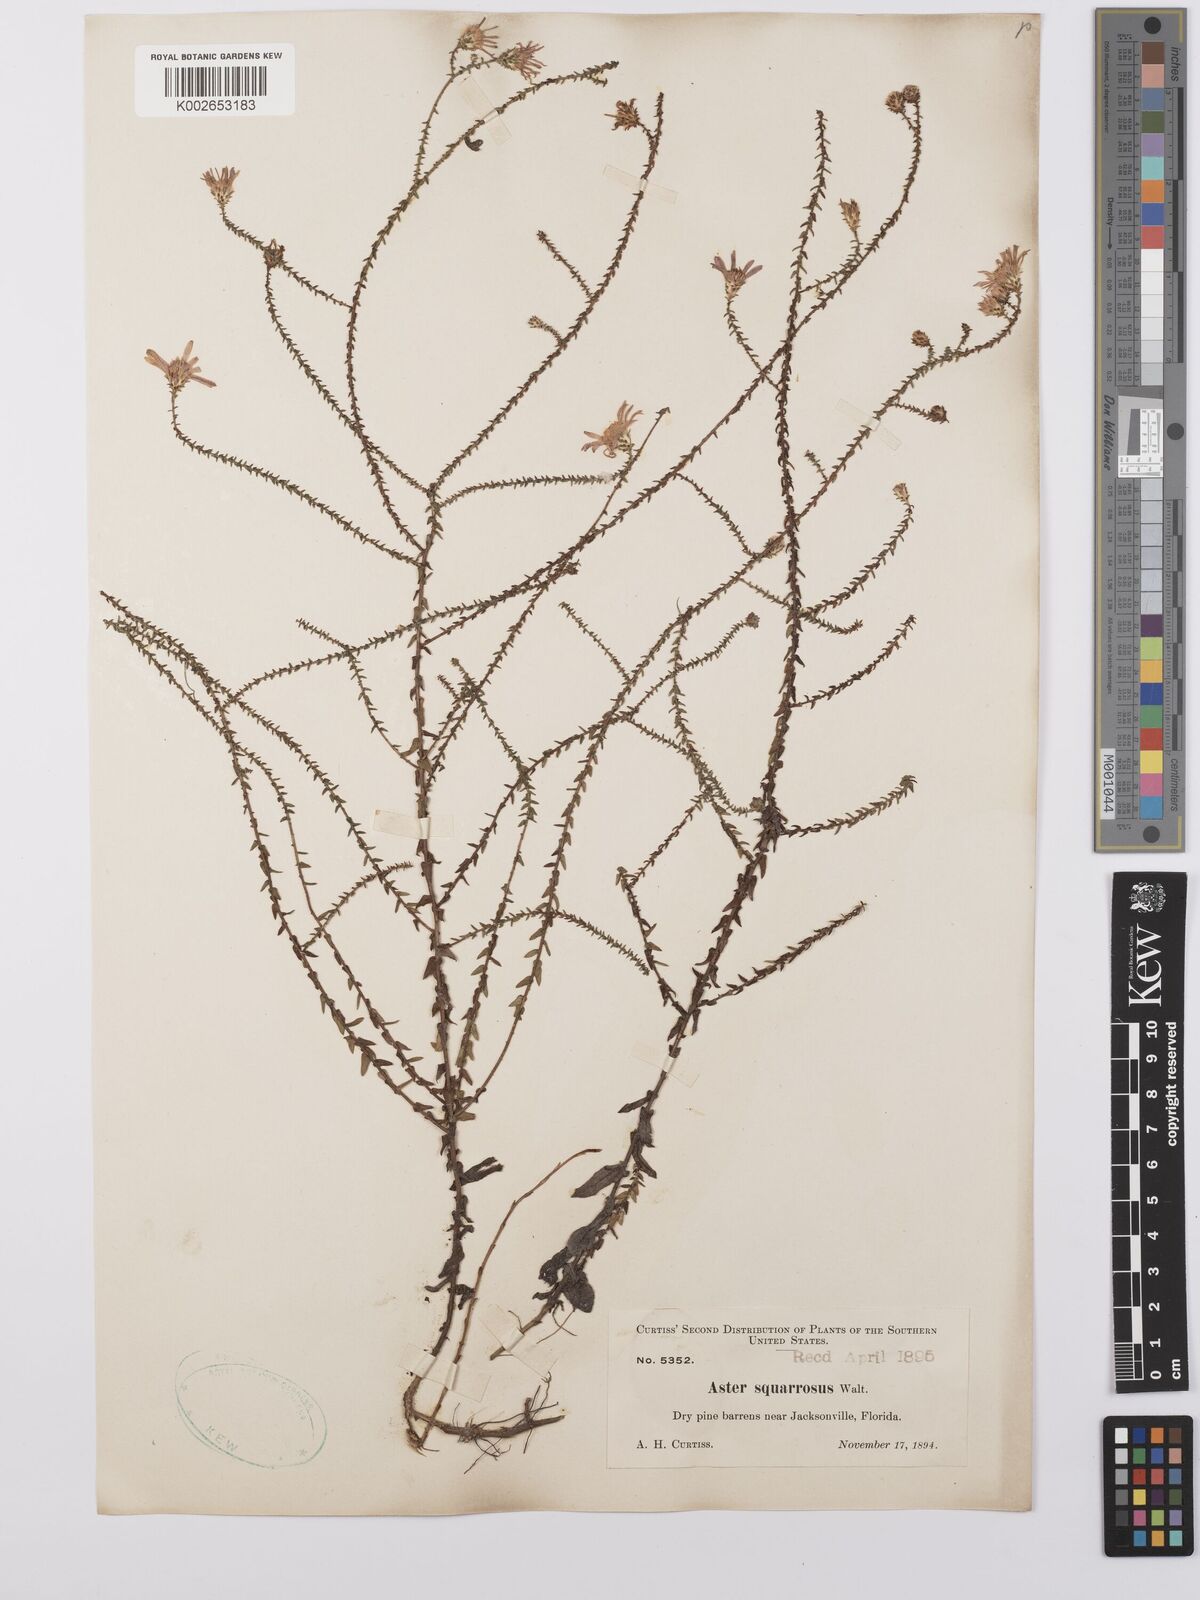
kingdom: Plantae
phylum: Tracheophyta
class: Magnoliopsida
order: Asterales
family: Asteraceae
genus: Aster
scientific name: Aster
